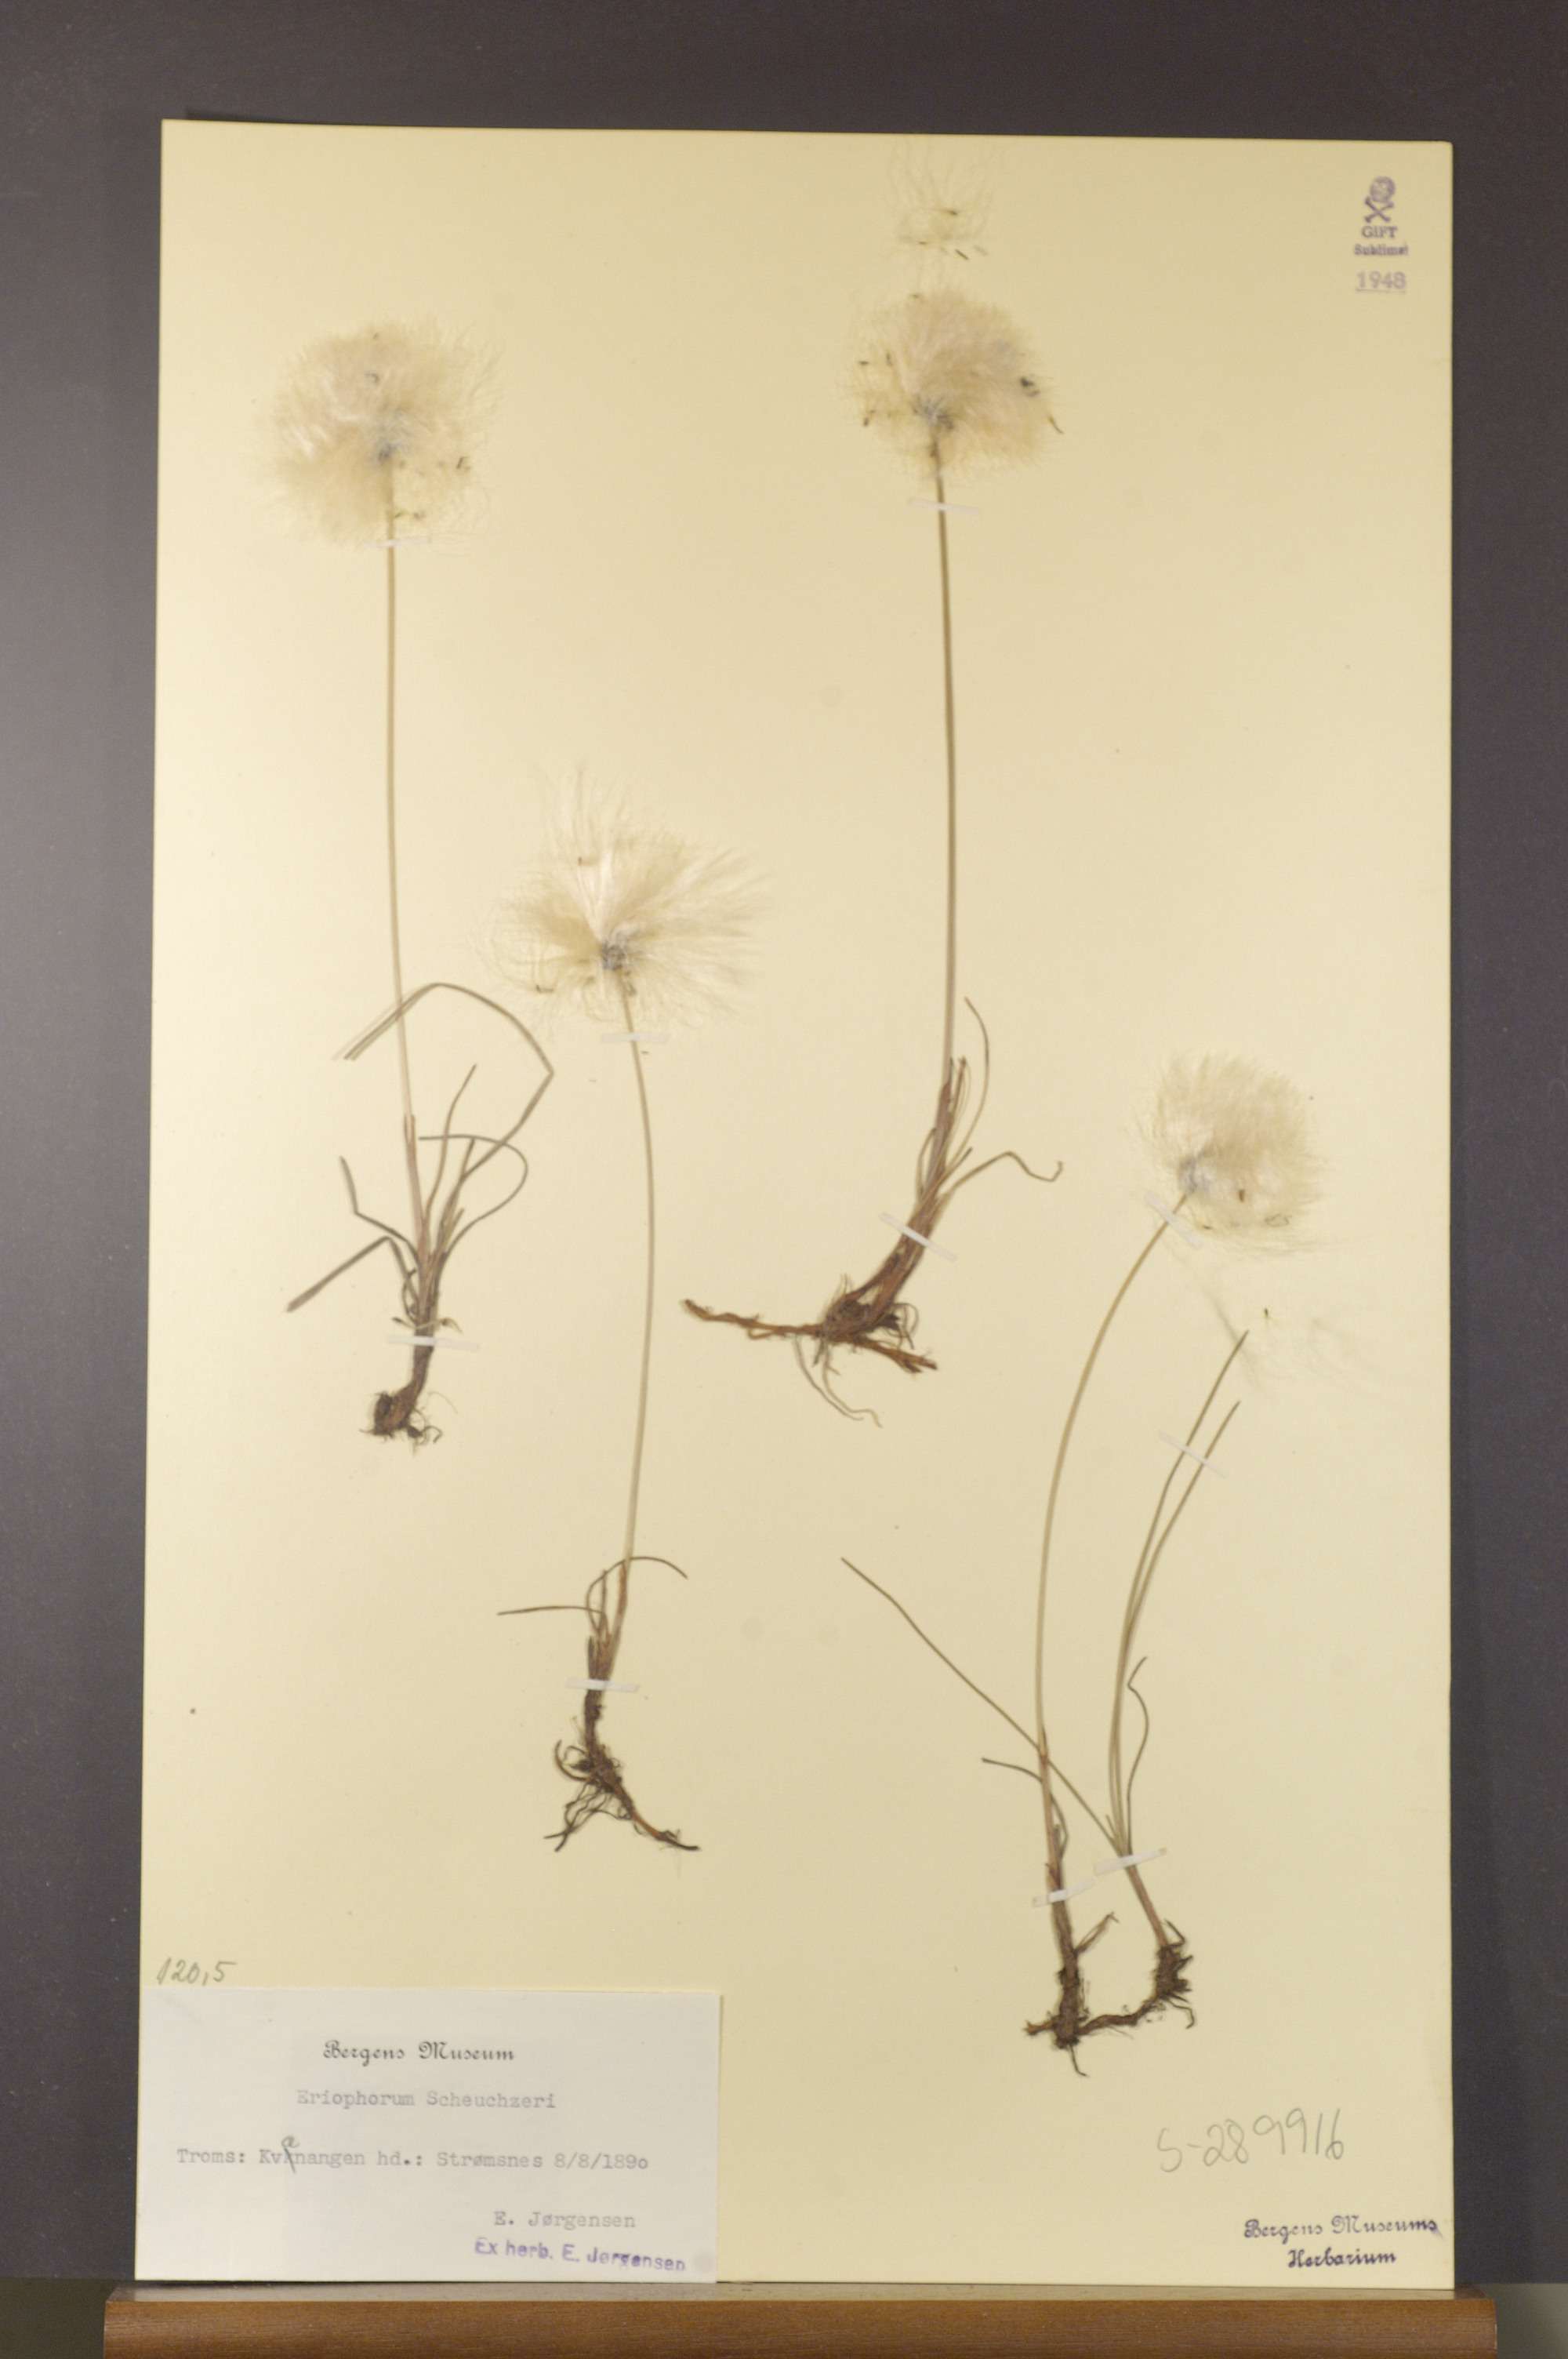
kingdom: Plantae
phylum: Tracheophyta
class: Liliopsida
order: Poales
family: Cyperaceae
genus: Eriophorum
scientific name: Eriophorum scheuchzeri
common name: Scheuchzer's cottongrass
